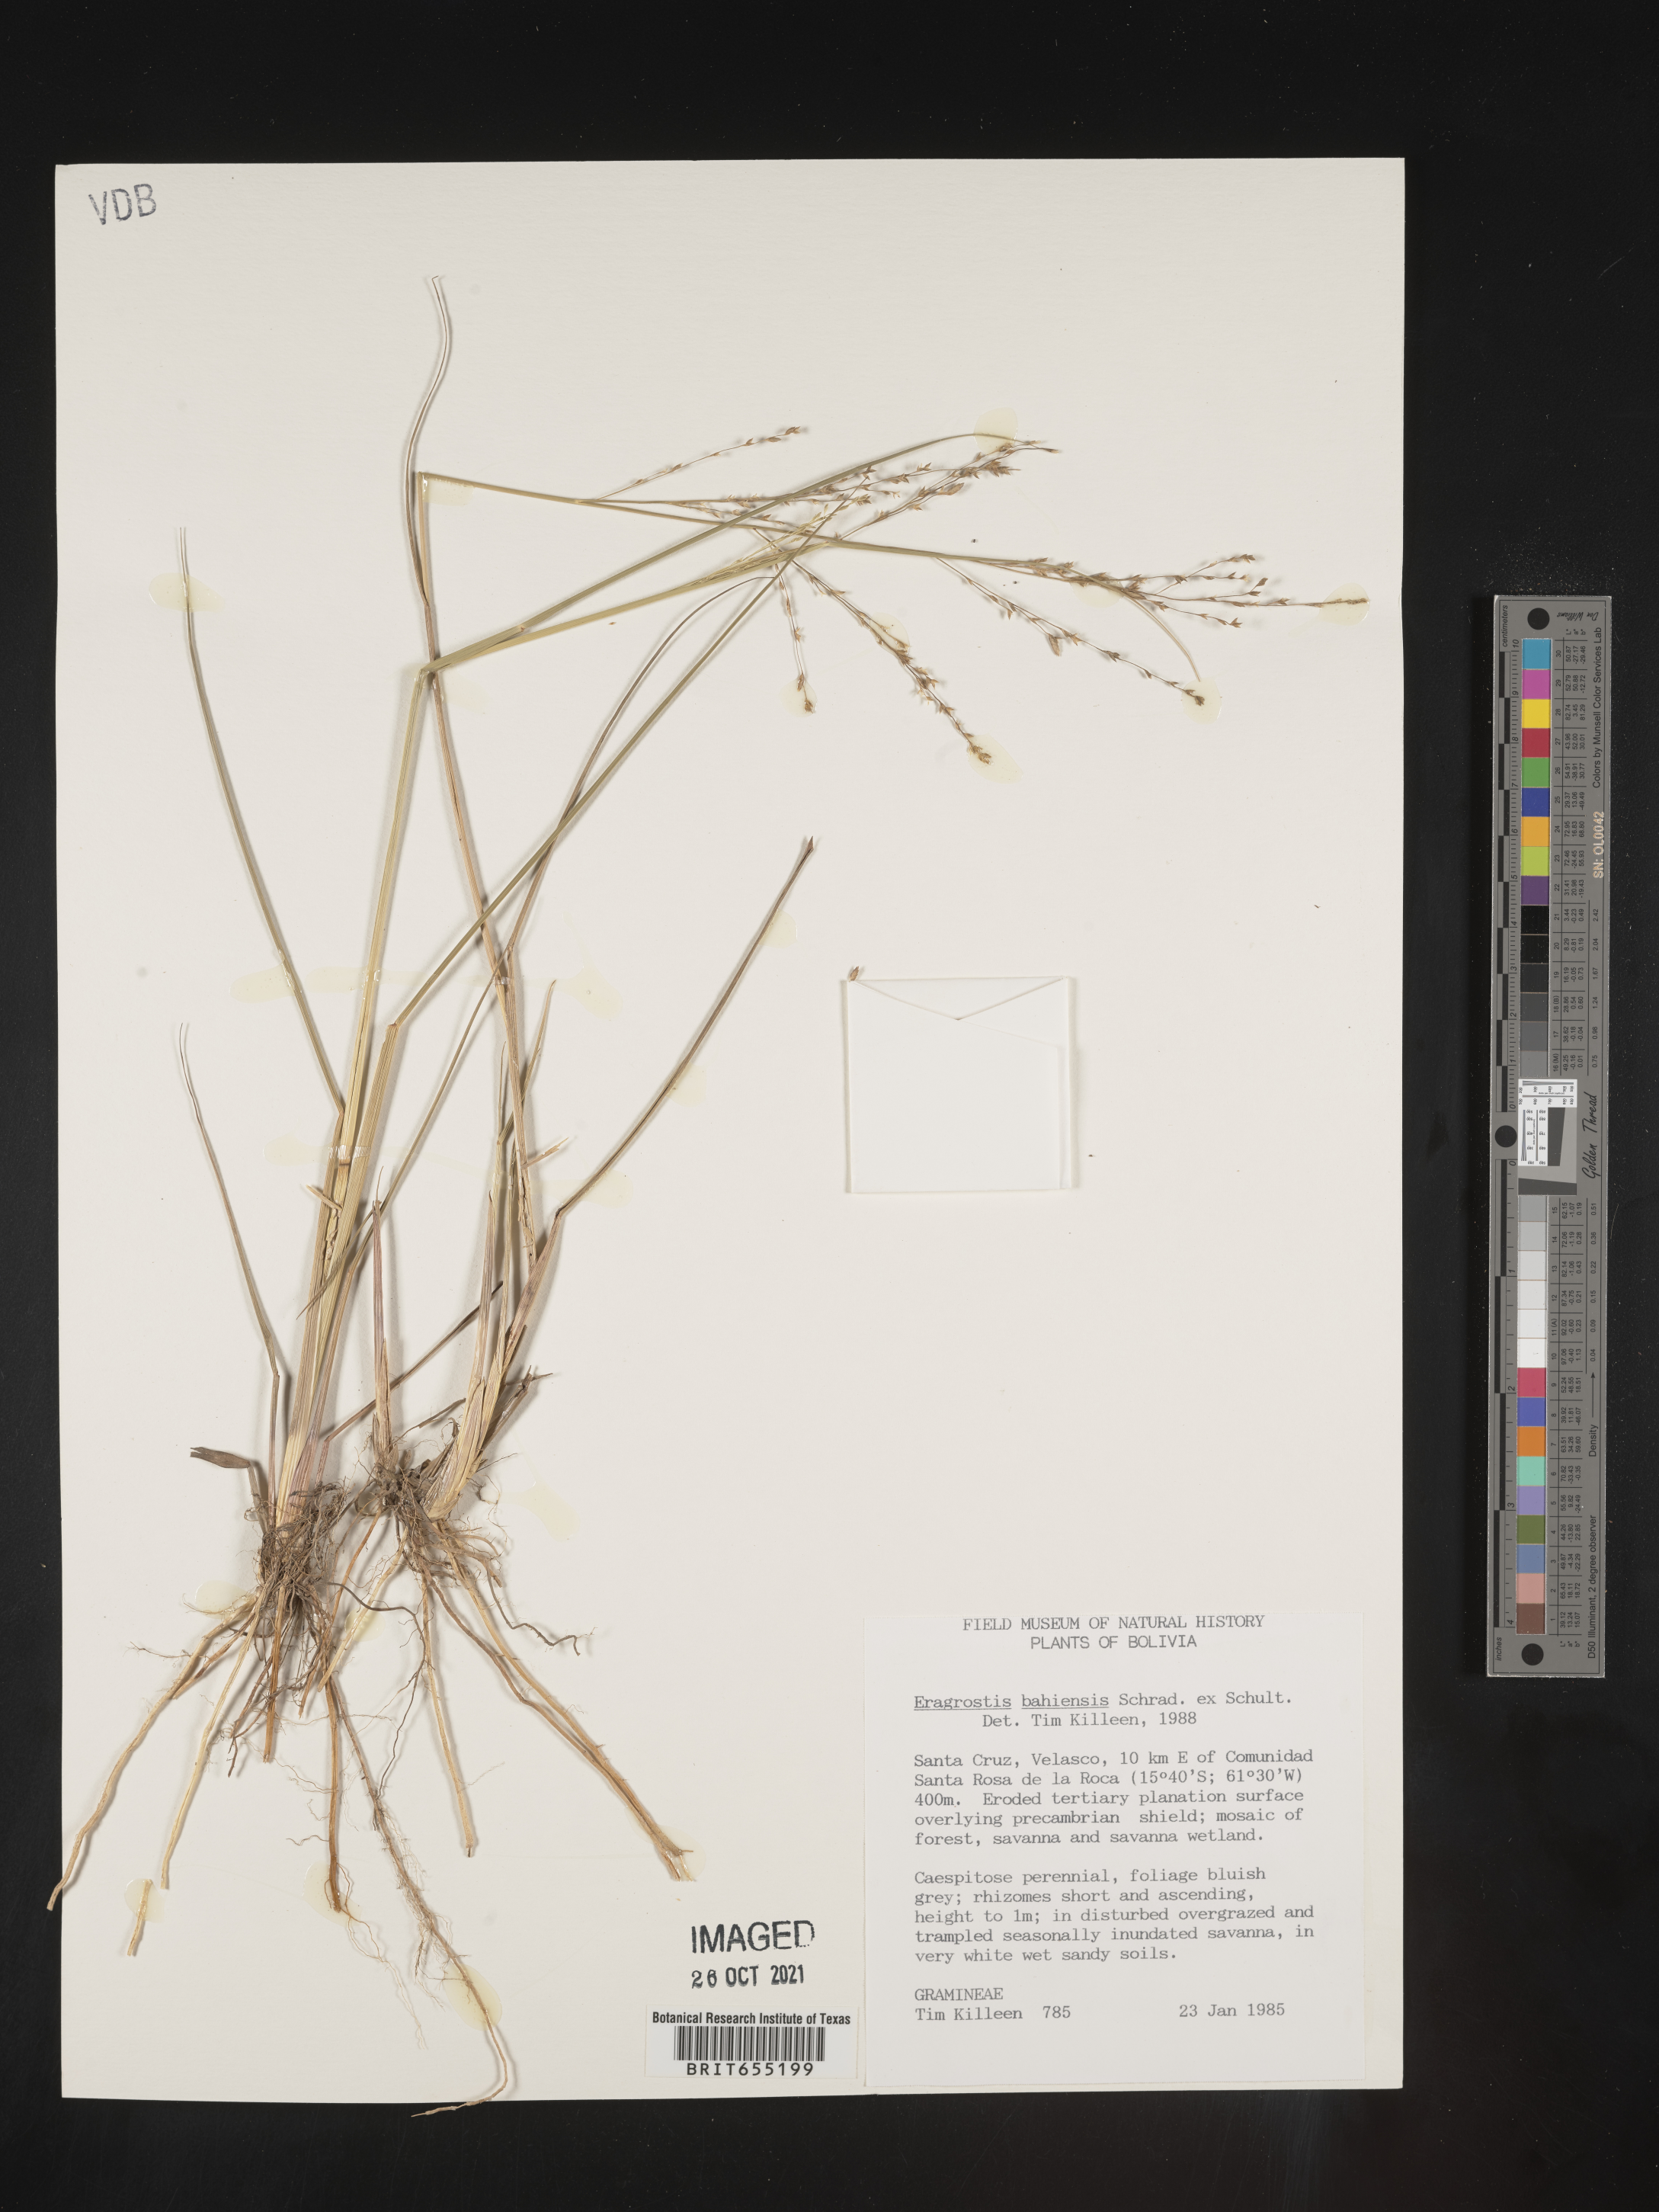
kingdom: Plantae
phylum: Tracheophyta
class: Liliopsida
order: Poales
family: Poaceae
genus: Eragrostis
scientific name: Eragrostis
